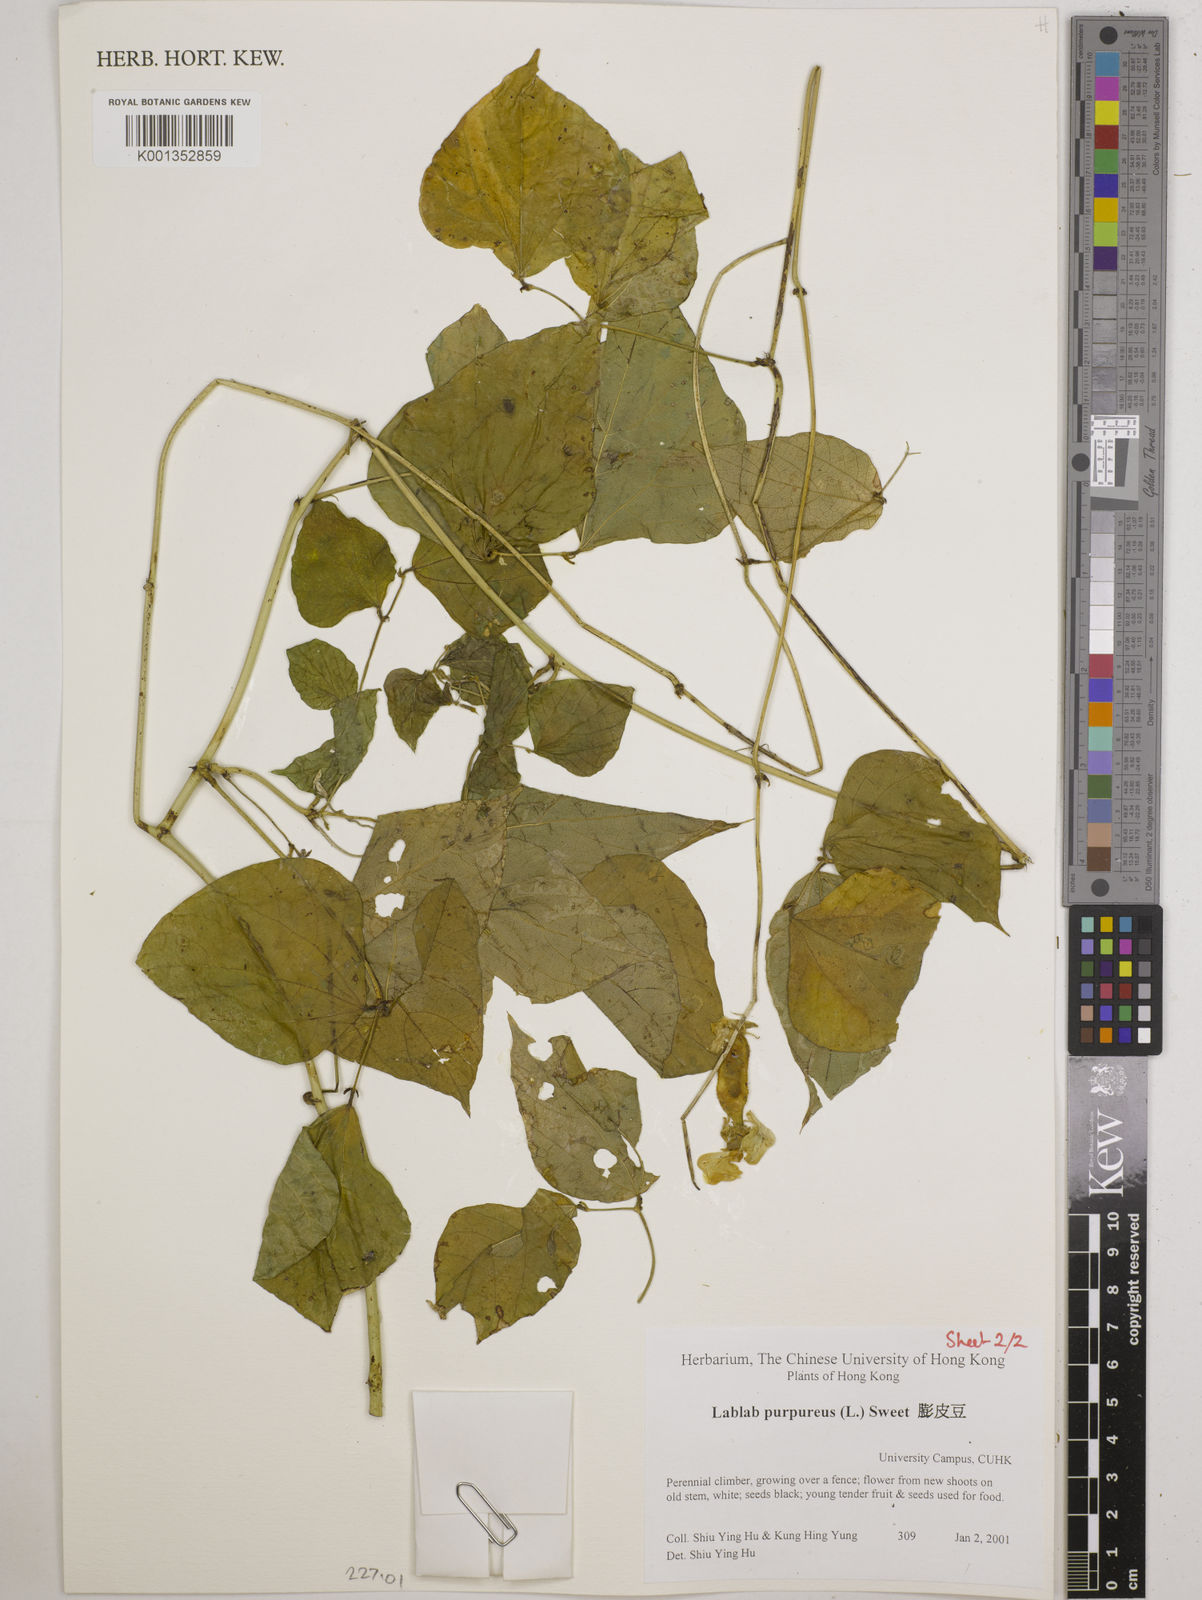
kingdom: Plantae
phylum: Tracheophyta
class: Magnoliopsida
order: Fabales
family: Fabaceae
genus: Lablab
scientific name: Lablab purpureus
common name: Lablab-bean
